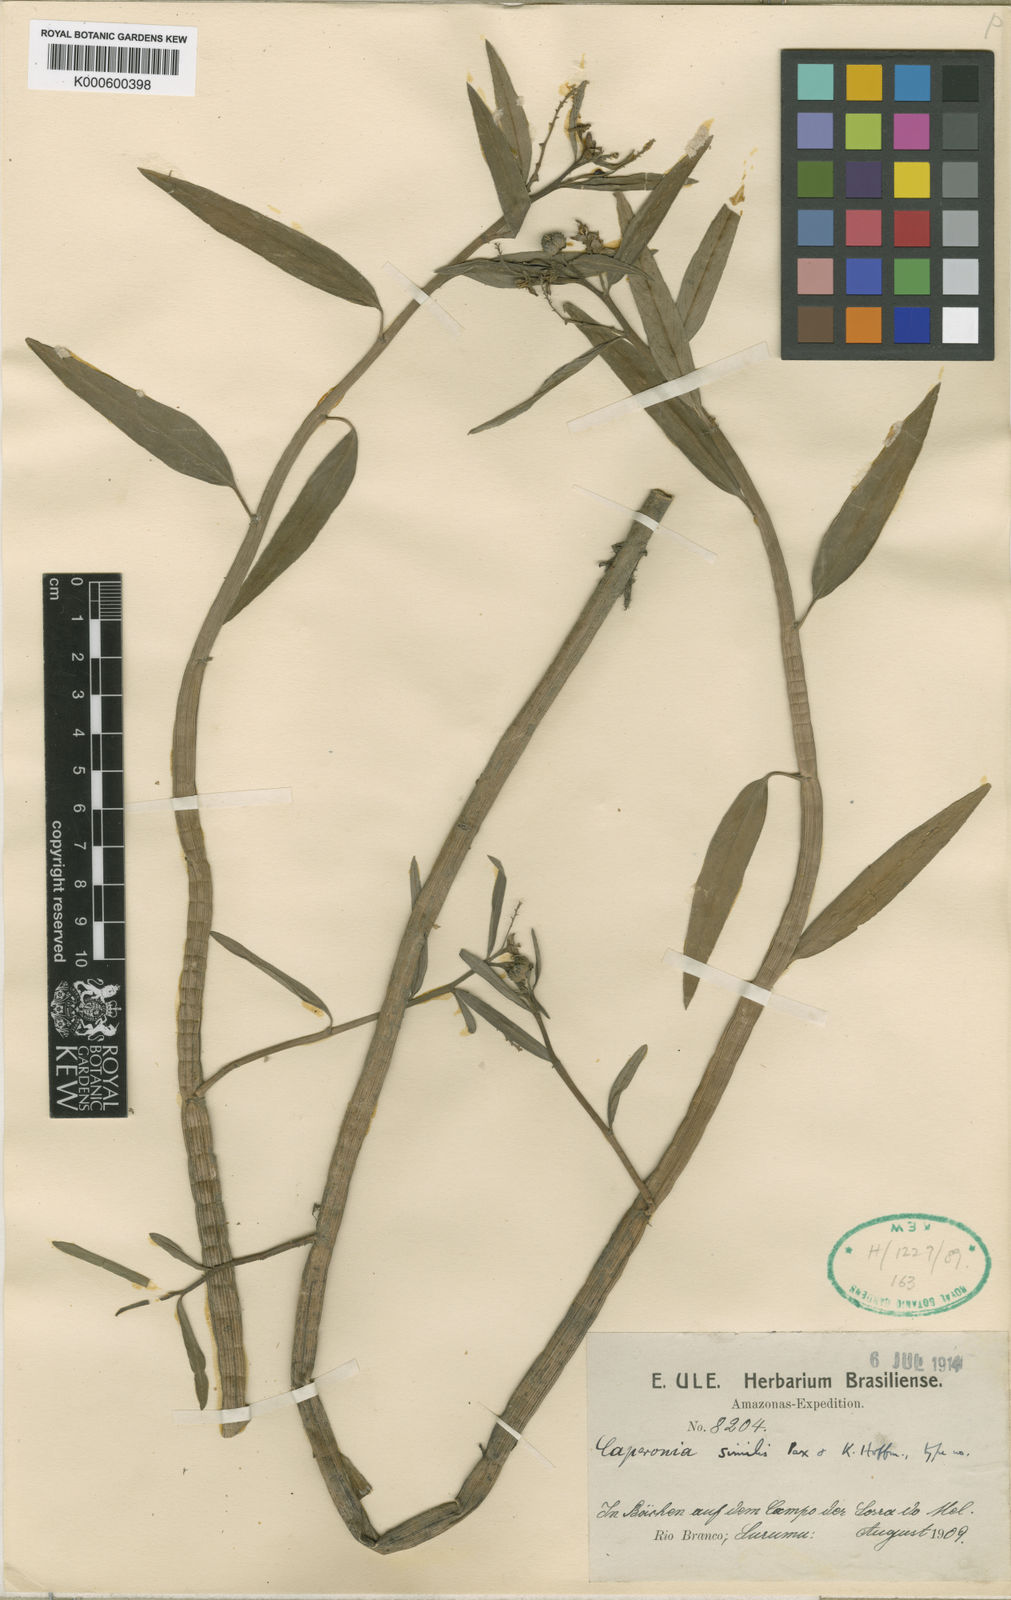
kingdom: Plantae
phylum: Tracheophyta
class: Magnoliopsida
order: Malpighiales
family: Euphorbiaceae
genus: Caperonia
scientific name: Caperonia similis
